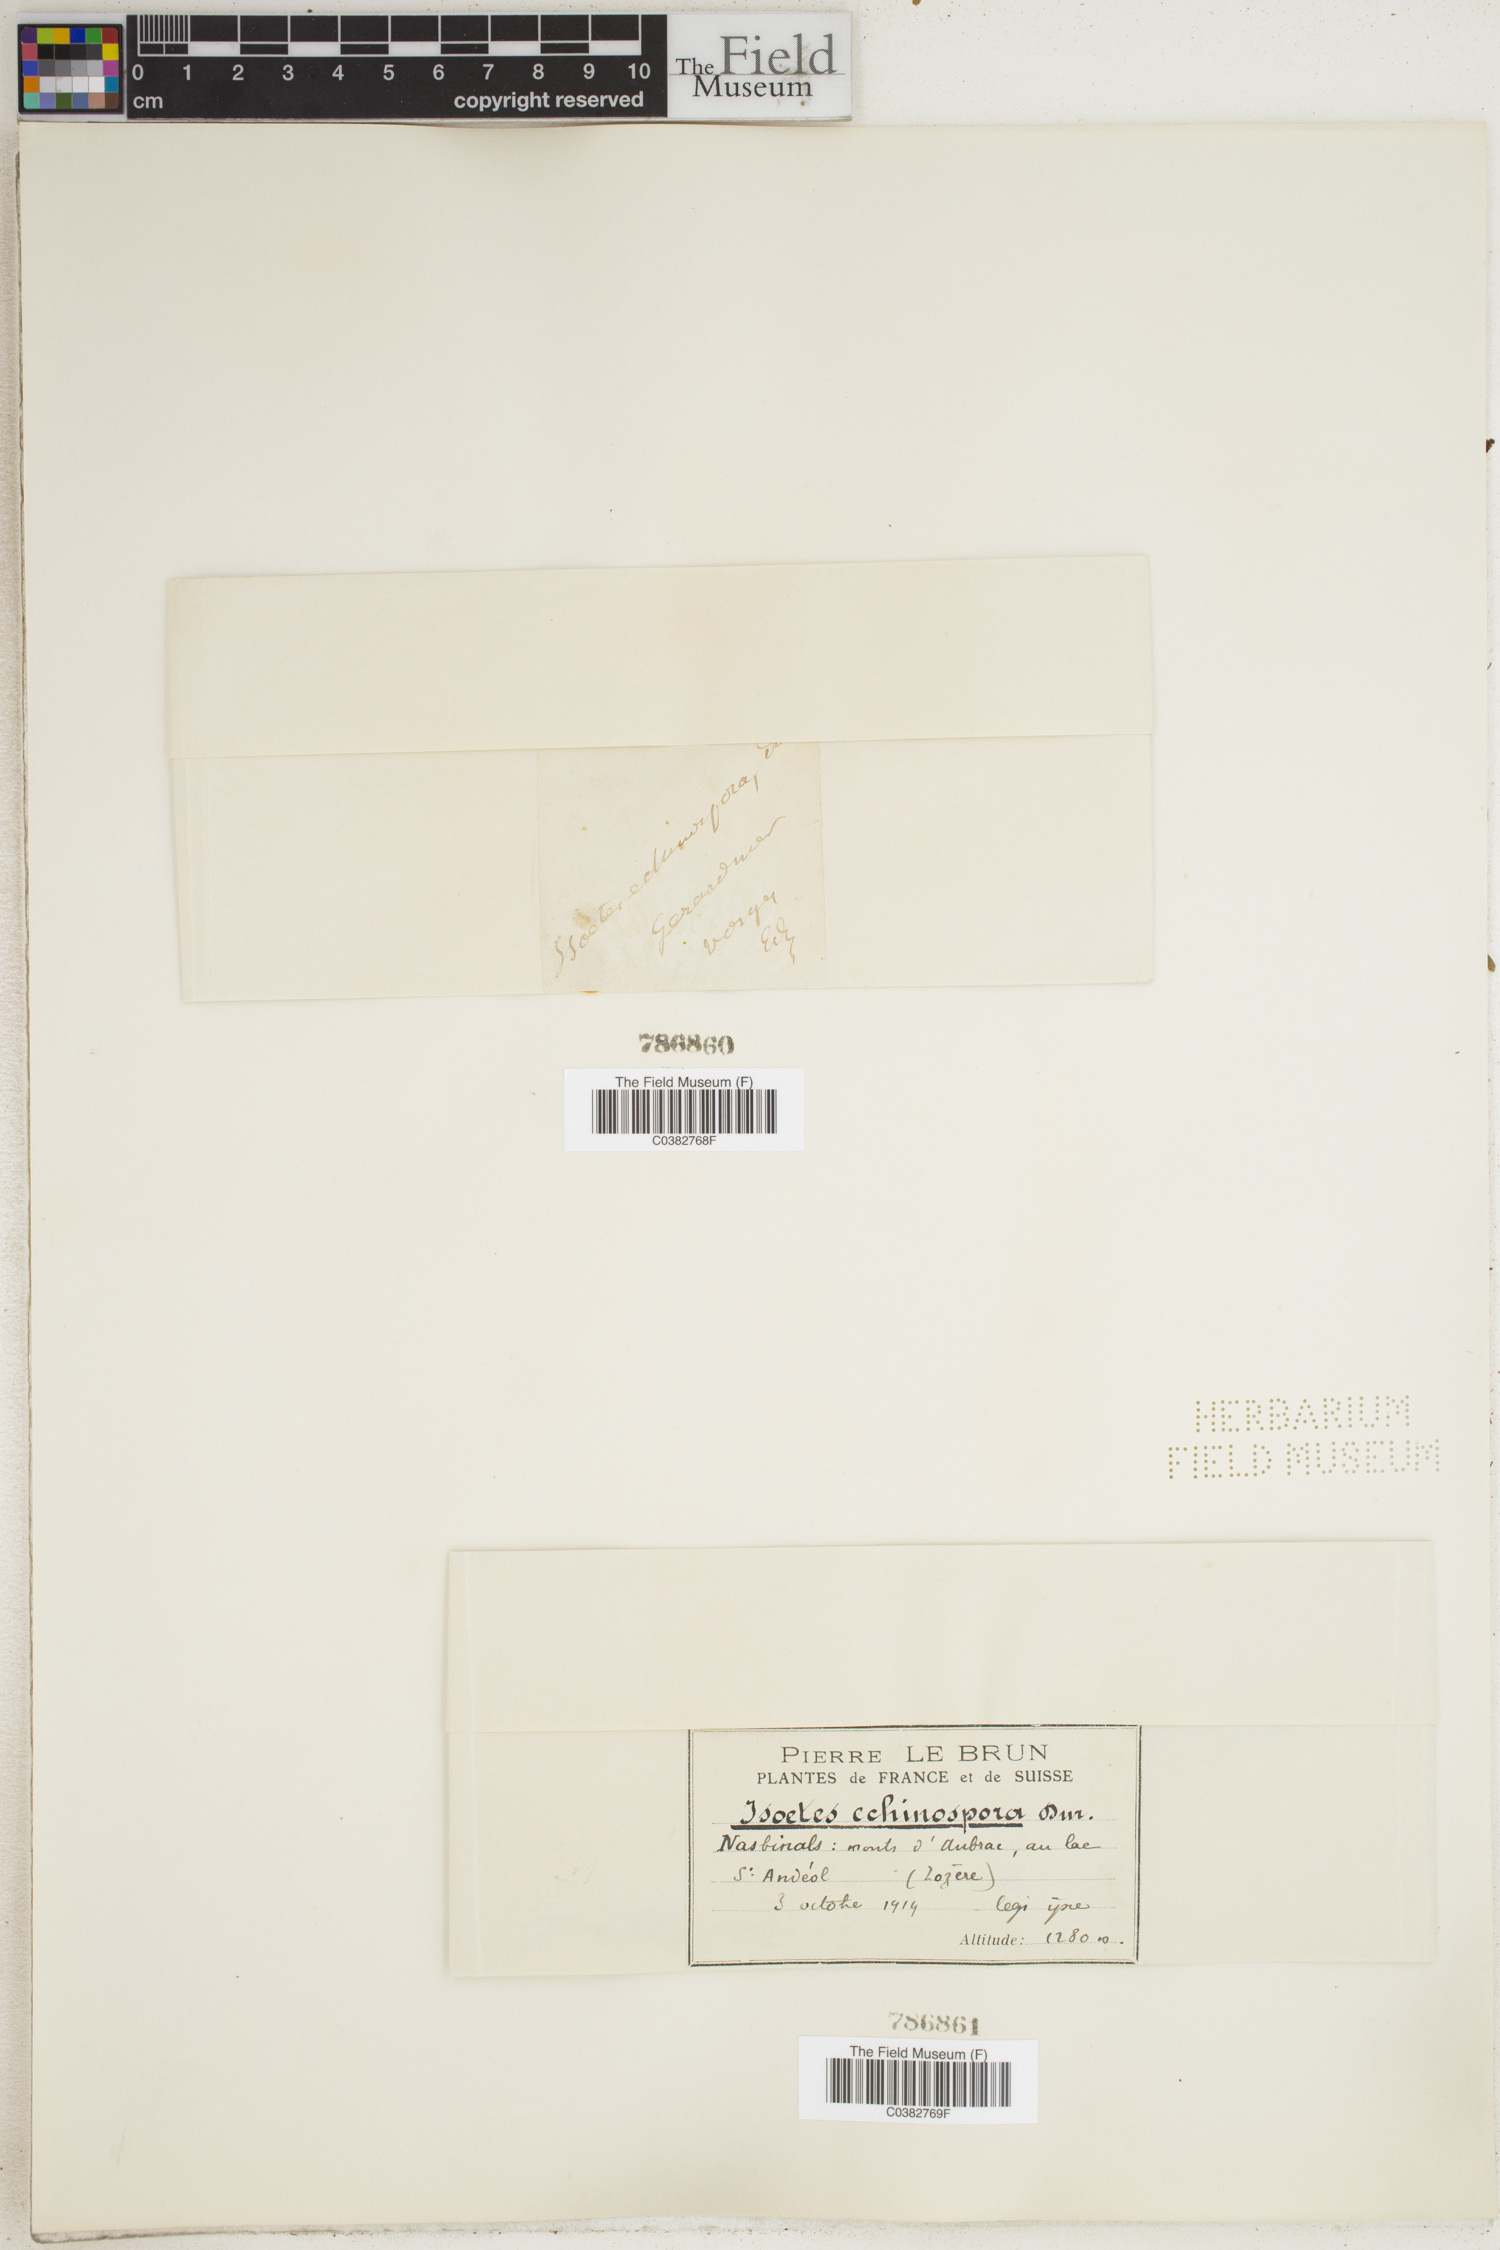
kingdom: Plantae
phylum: Tracheophyta
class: Lycopodiopsida
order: Isoetales
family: Isoetaceae
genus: Isoetes
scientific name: Isoetes echinospora
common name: Spring quillwort
